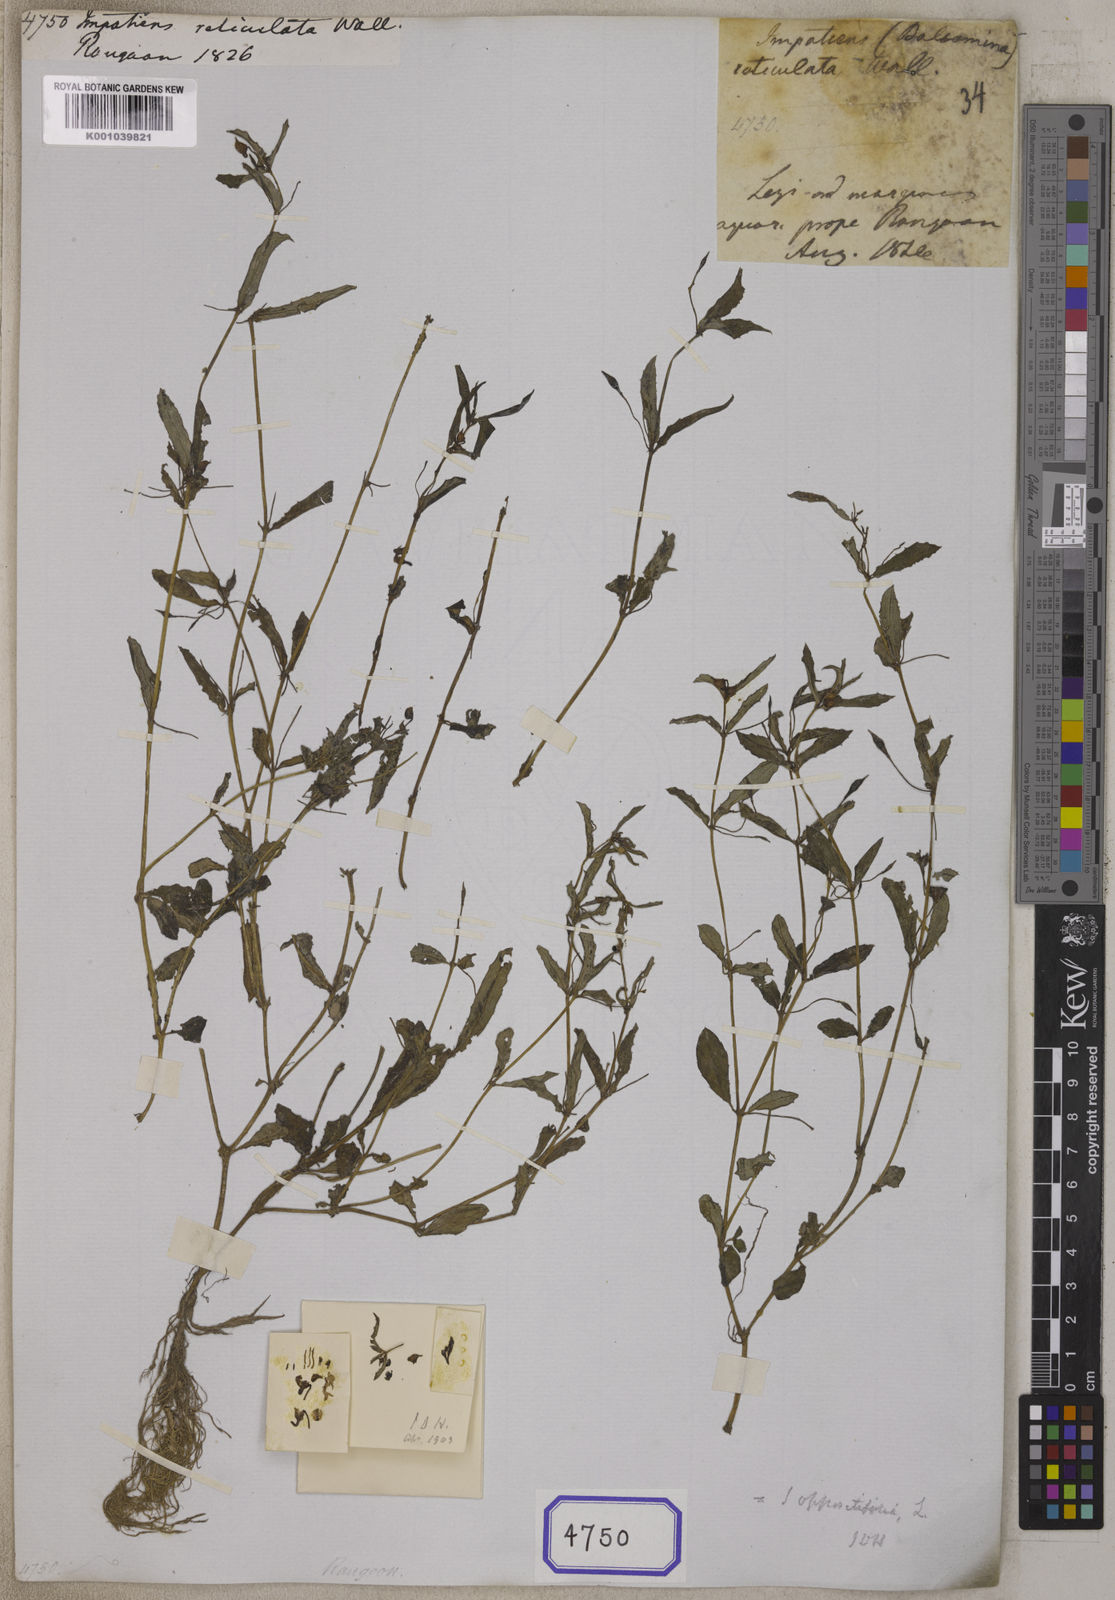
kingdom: Plantae
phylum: Tracheophyta
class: Magnoliopsida
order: Ericales
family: Balsaminaceae
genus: Impatiens
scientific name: Impatiens oppositifolia
